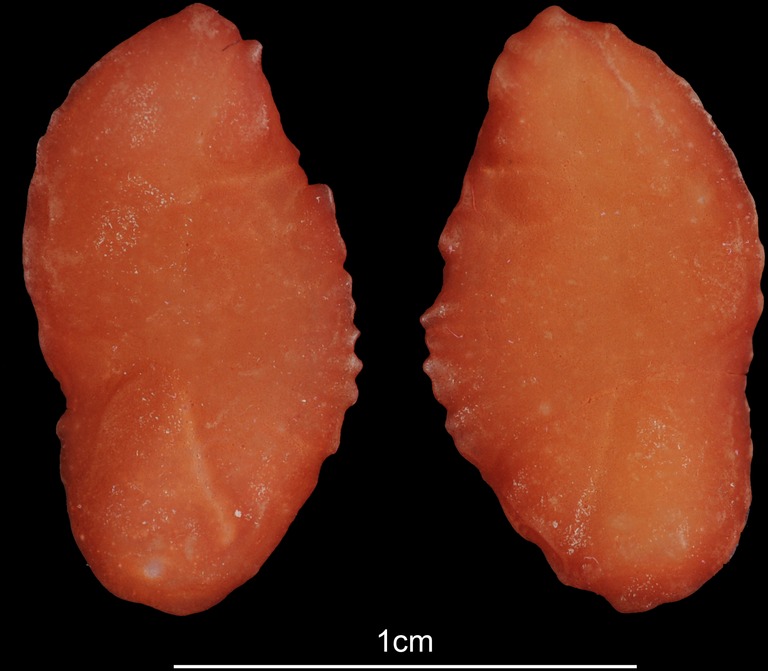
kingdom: Animalia
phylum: Chordata
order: Gadiformes
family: Lotidae
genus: Brosme
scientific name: Brosme brosme
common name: Cusk
